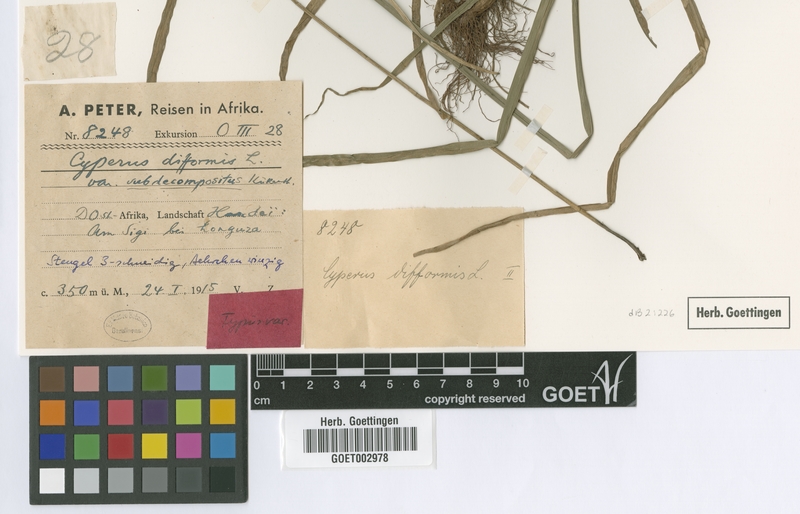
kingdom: Plantae
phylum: Tracheophyta
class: Liliopsida
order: Poales
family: Cyperaceae
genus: Cyperus
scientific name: Cyperus difformis
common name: Variable flatsedge
